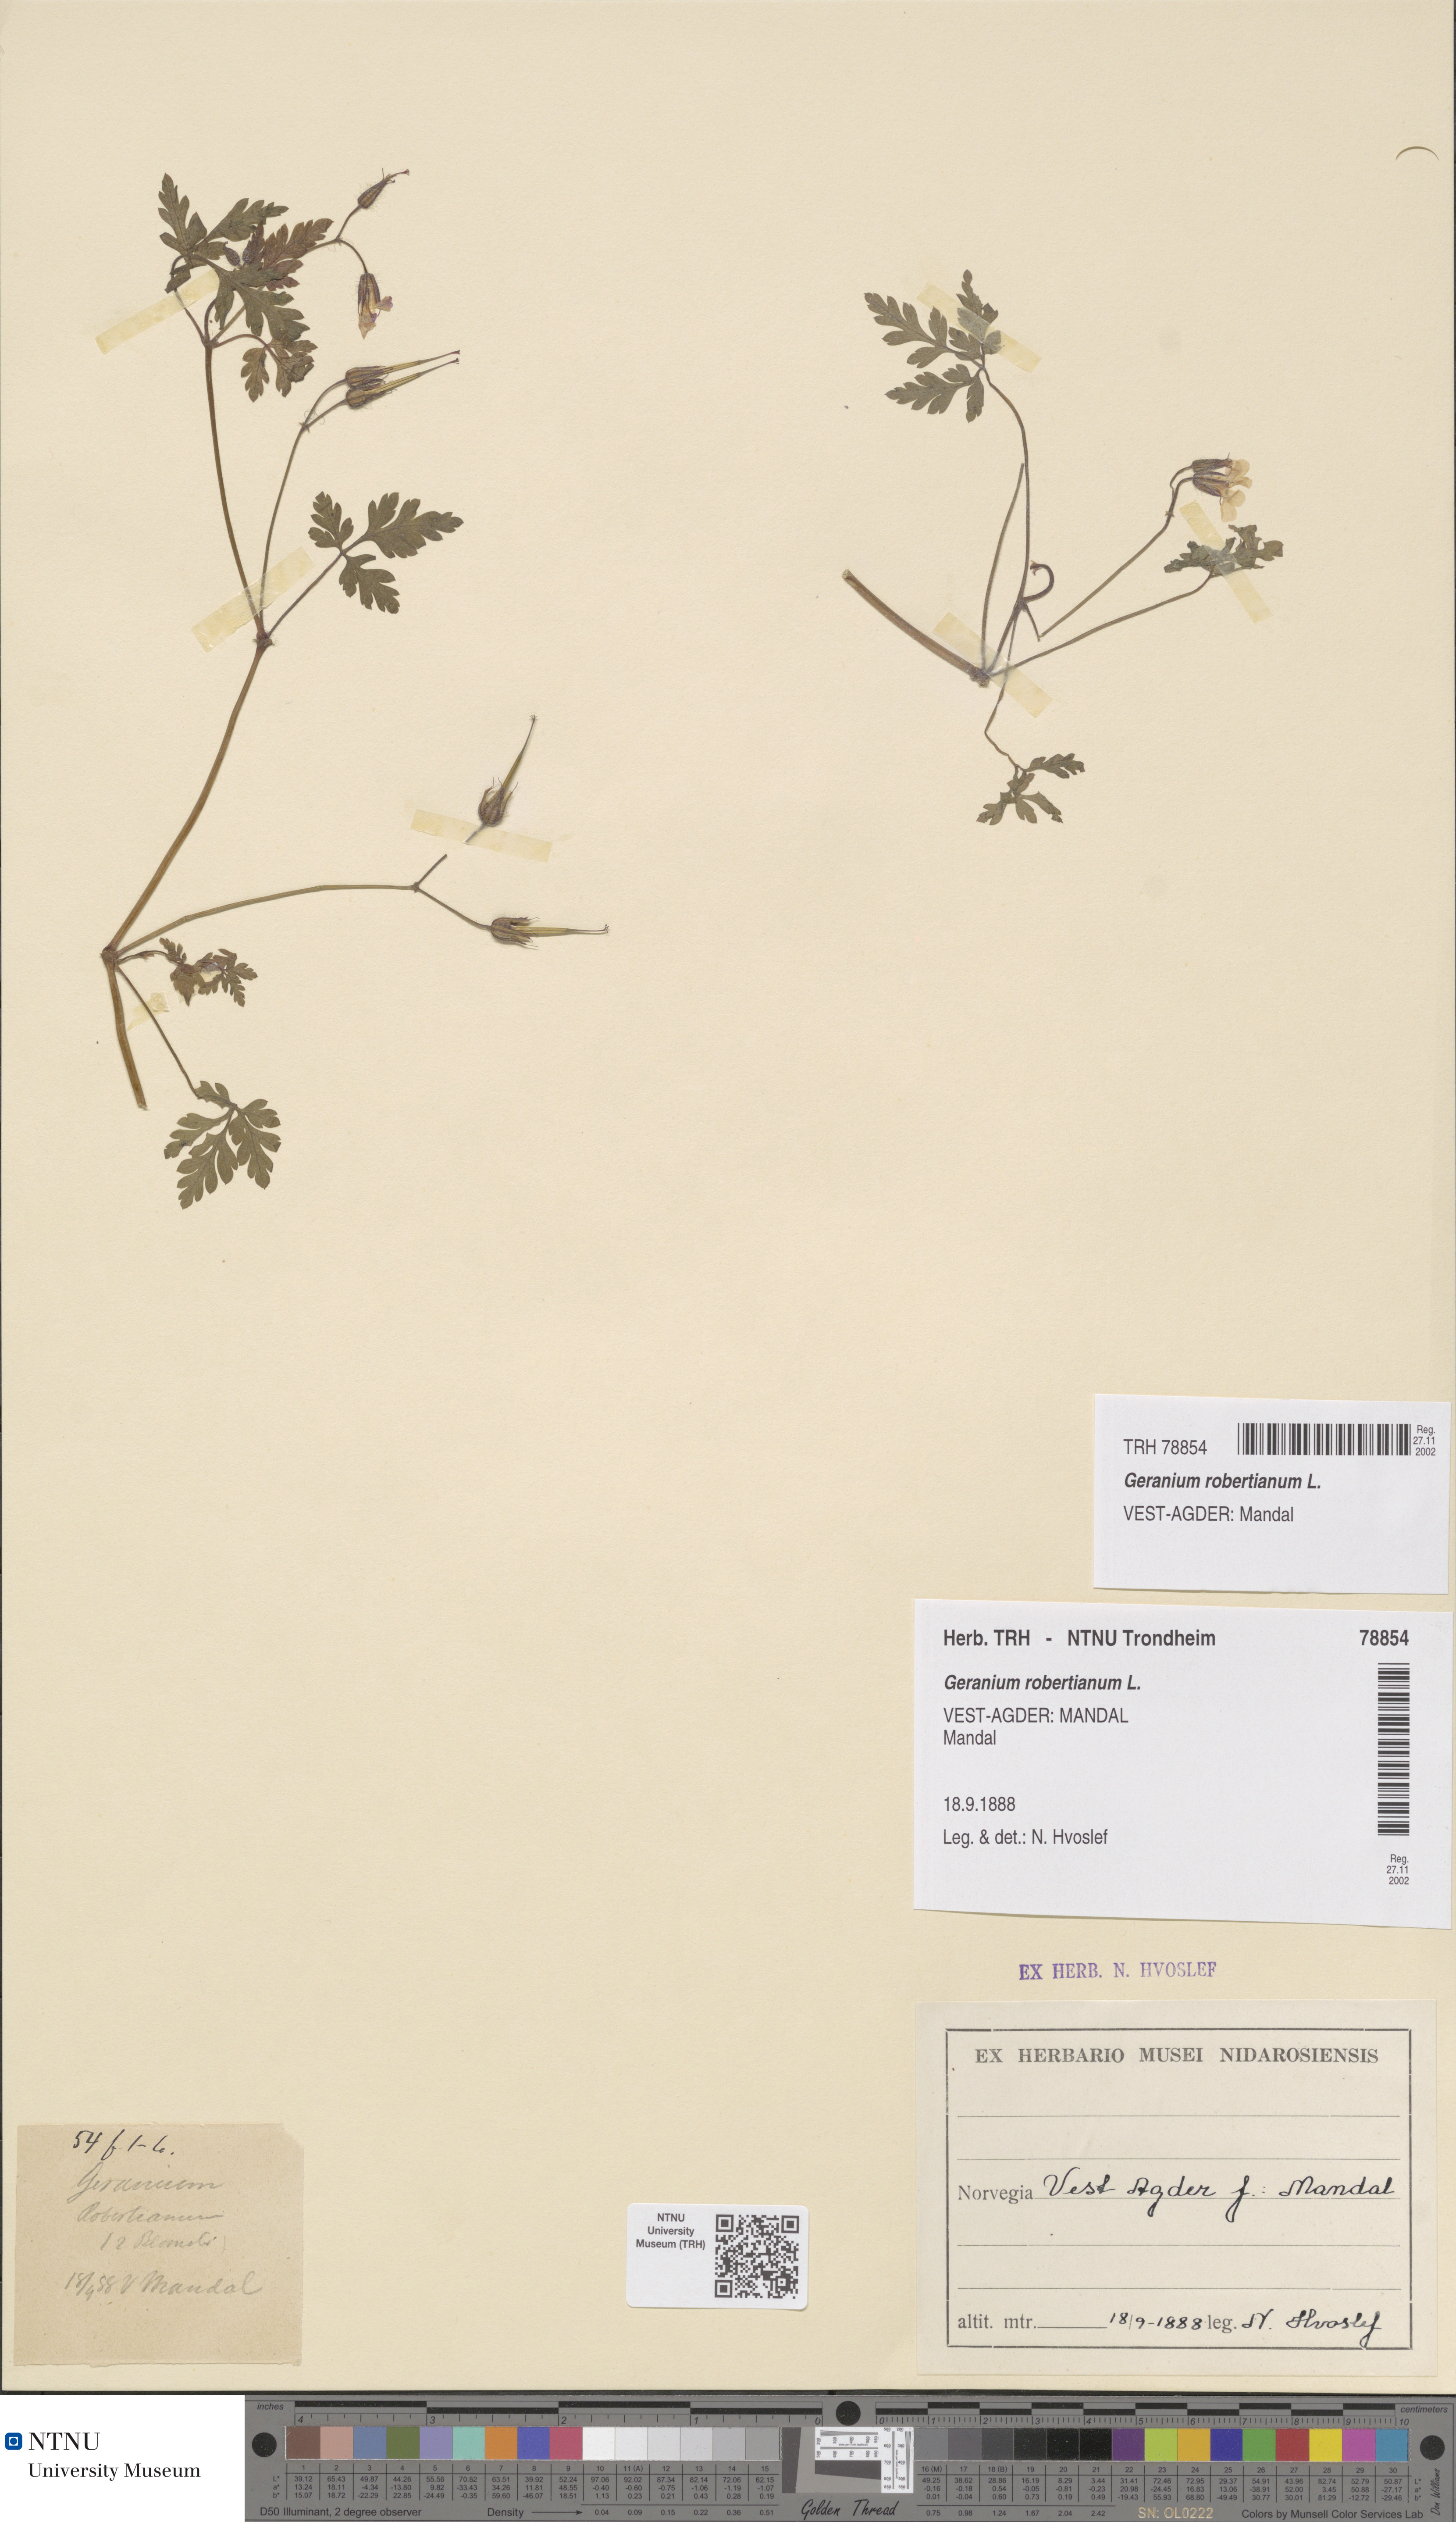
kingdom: Plantae
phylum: Tracheophyta
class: Magnoliopsida
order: Geraniales
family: Geraniaceae
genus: Geranium
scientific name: Geranium robertianum
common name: Herb-robert
